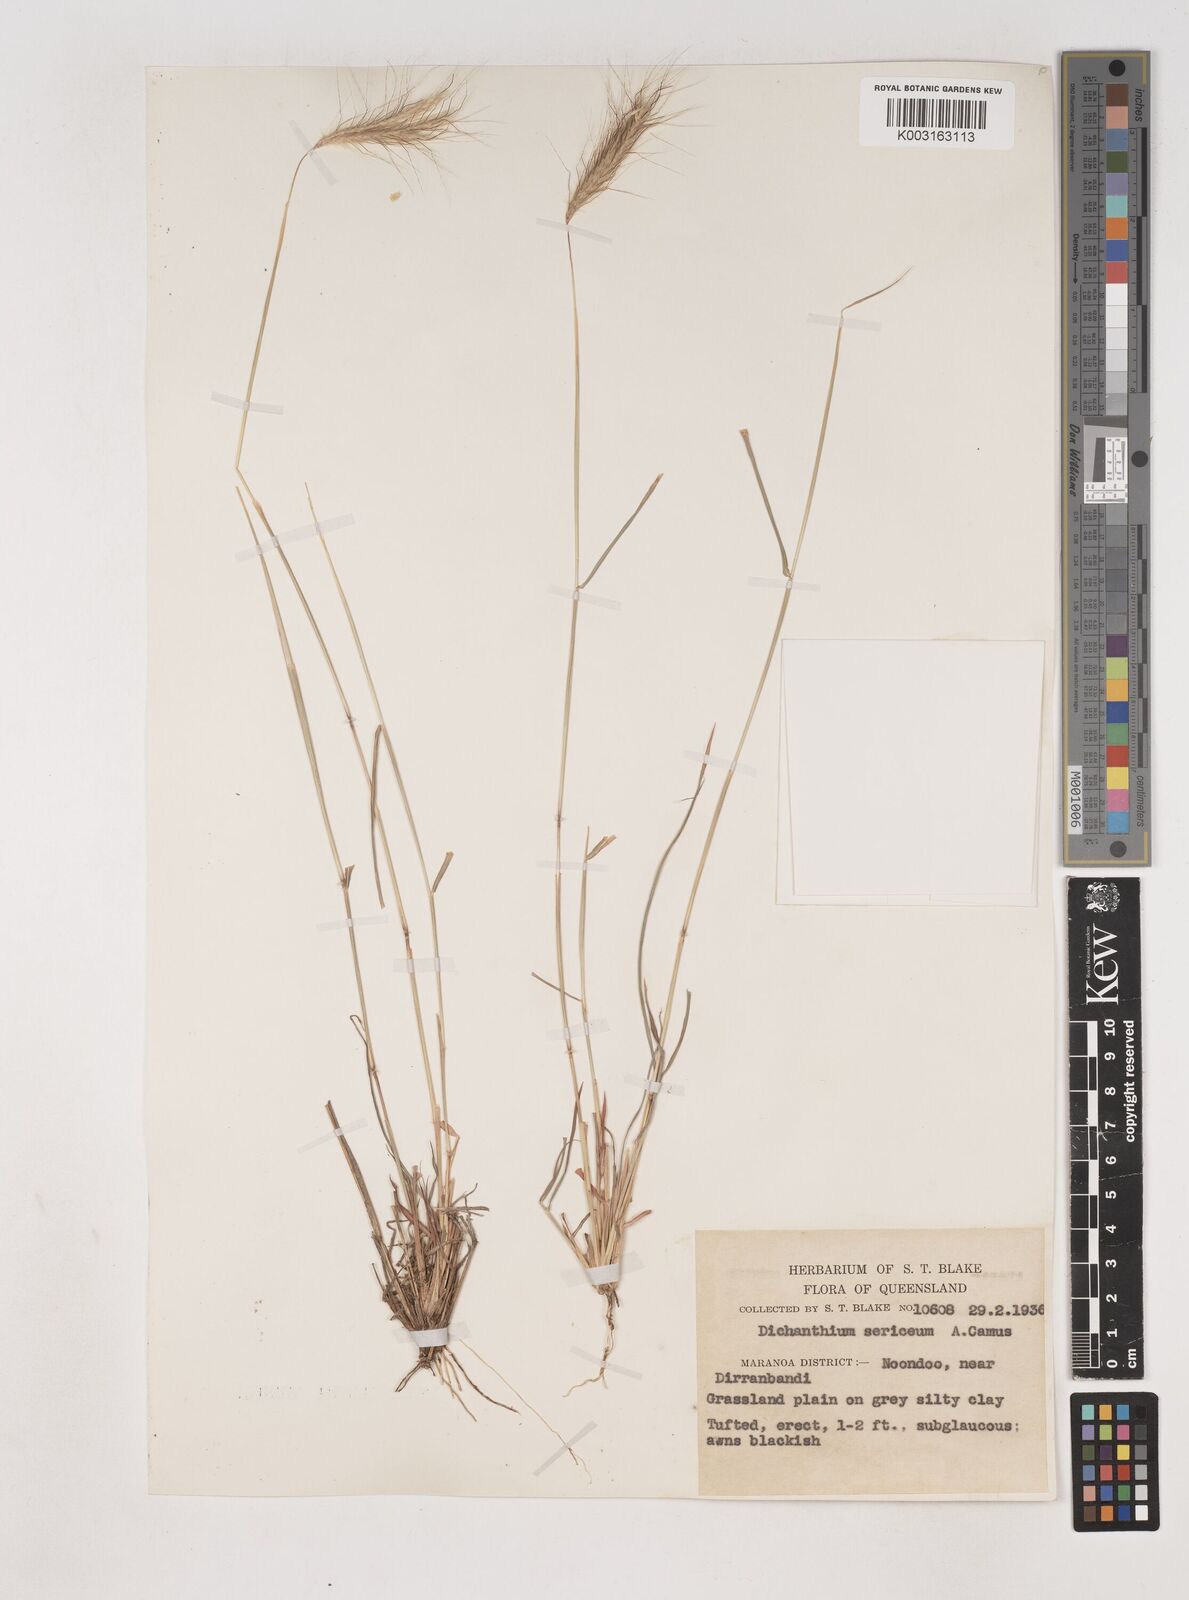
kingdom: Plantae
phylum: Tracheophyta
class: Liliopsida
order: Poales
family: Poaceae
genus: Dichanthium
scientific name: Dichanthium sericeum
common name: Silky bluestem
